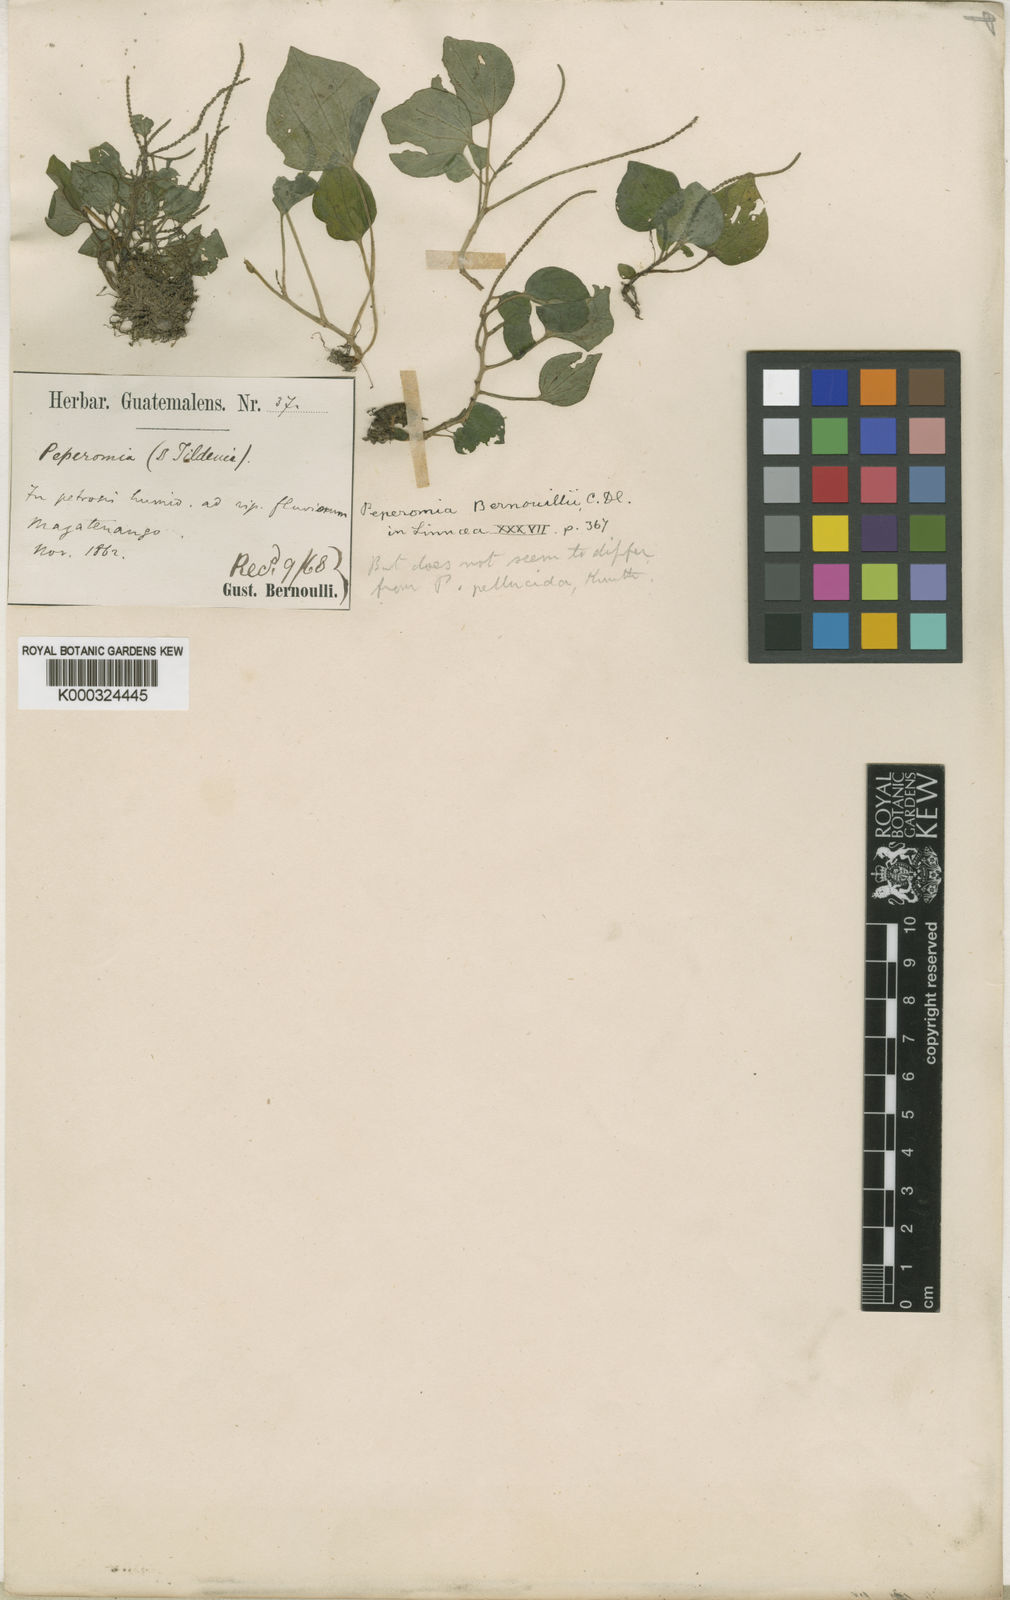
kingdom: Plantae
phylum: Tracheophyta
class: Magnoliopsida
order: Piperales
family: Piperaceae
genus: Peperomia
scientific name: Peperomia bernouillii
